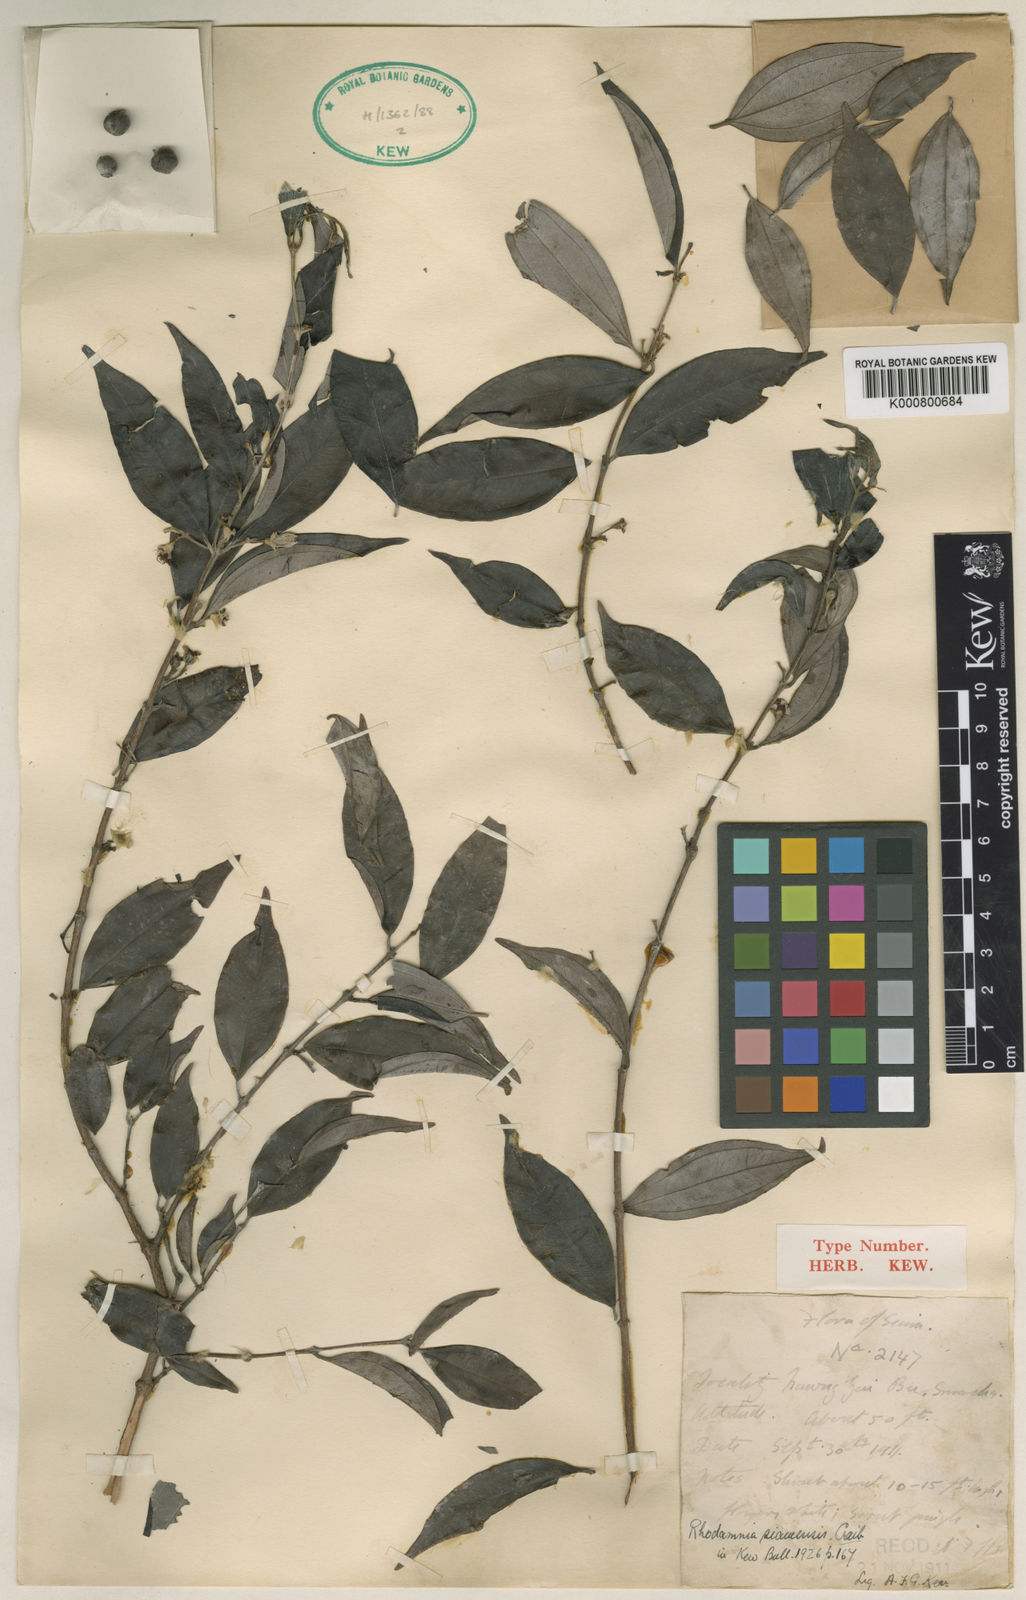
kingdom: Plantae
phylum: Tracheophyta
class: Magnoliopsida
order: Myrtales
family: Myrtaceae
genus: Rhodamnia
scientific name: Rhodamnia dumetorum
